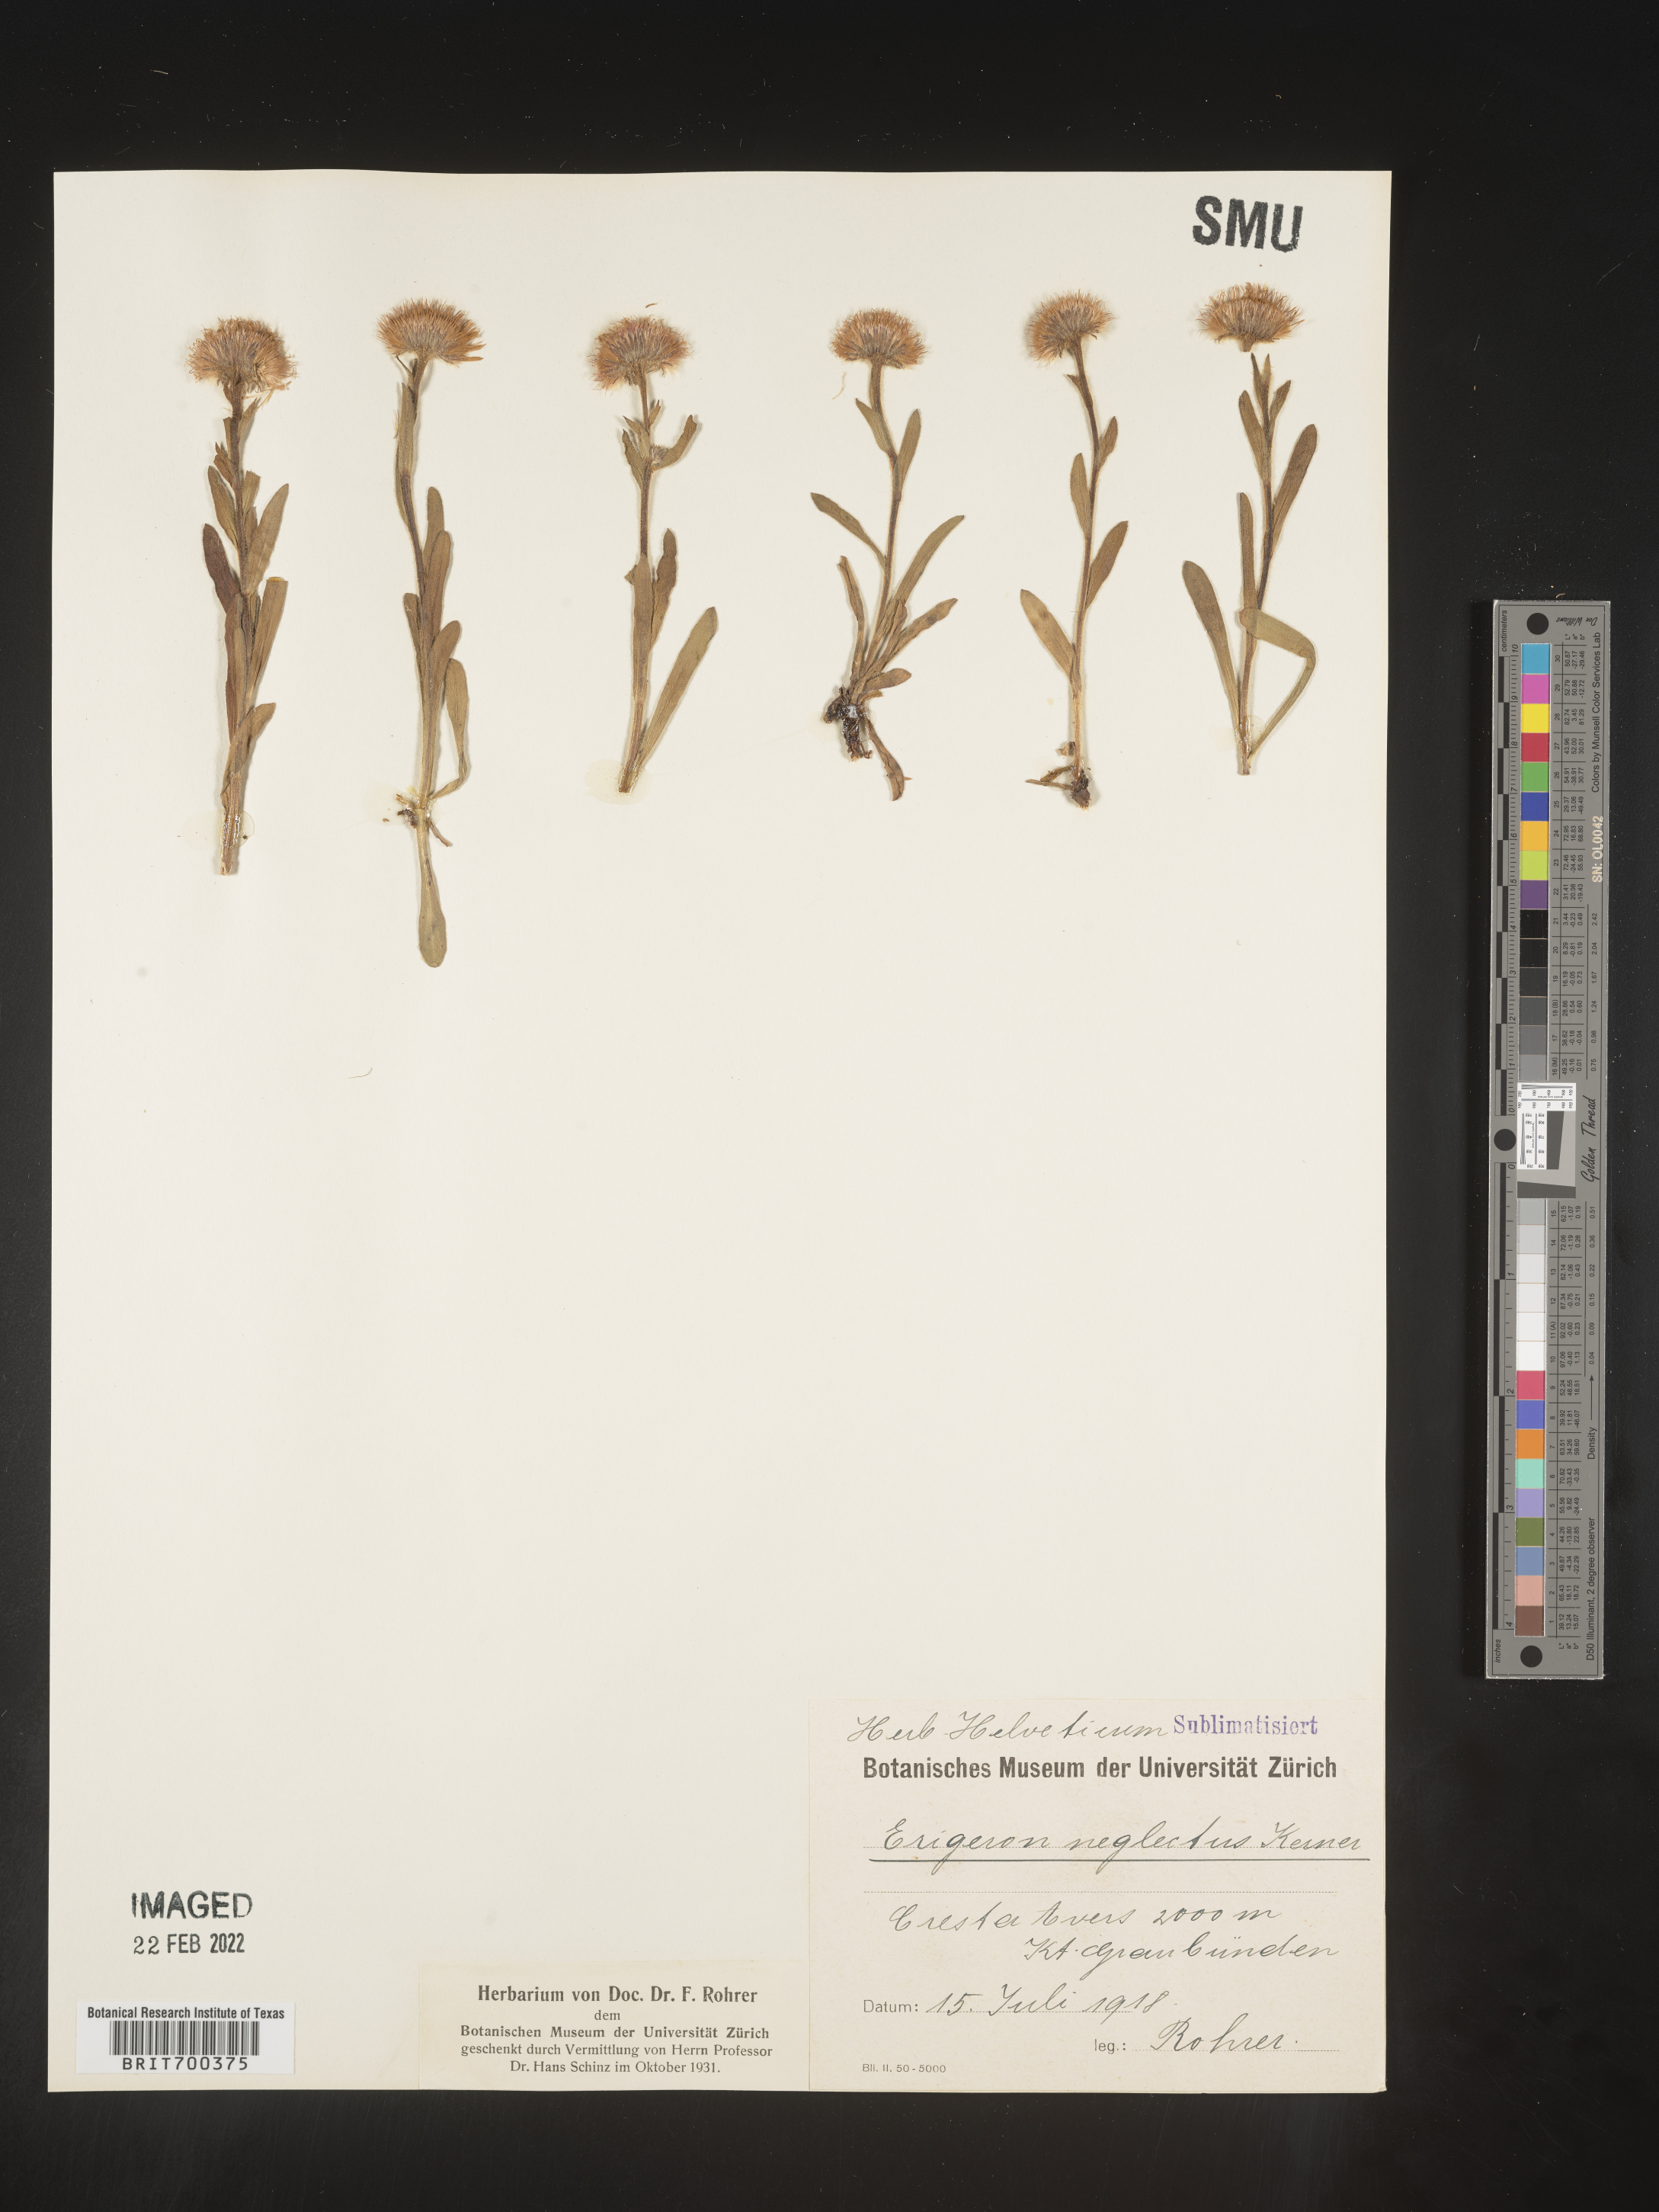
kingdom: Plantae
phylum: Tracheophyta
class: Magnoliopsida
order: Asterales
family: Asteraceae
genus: Erigeron
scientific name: Erigeron
